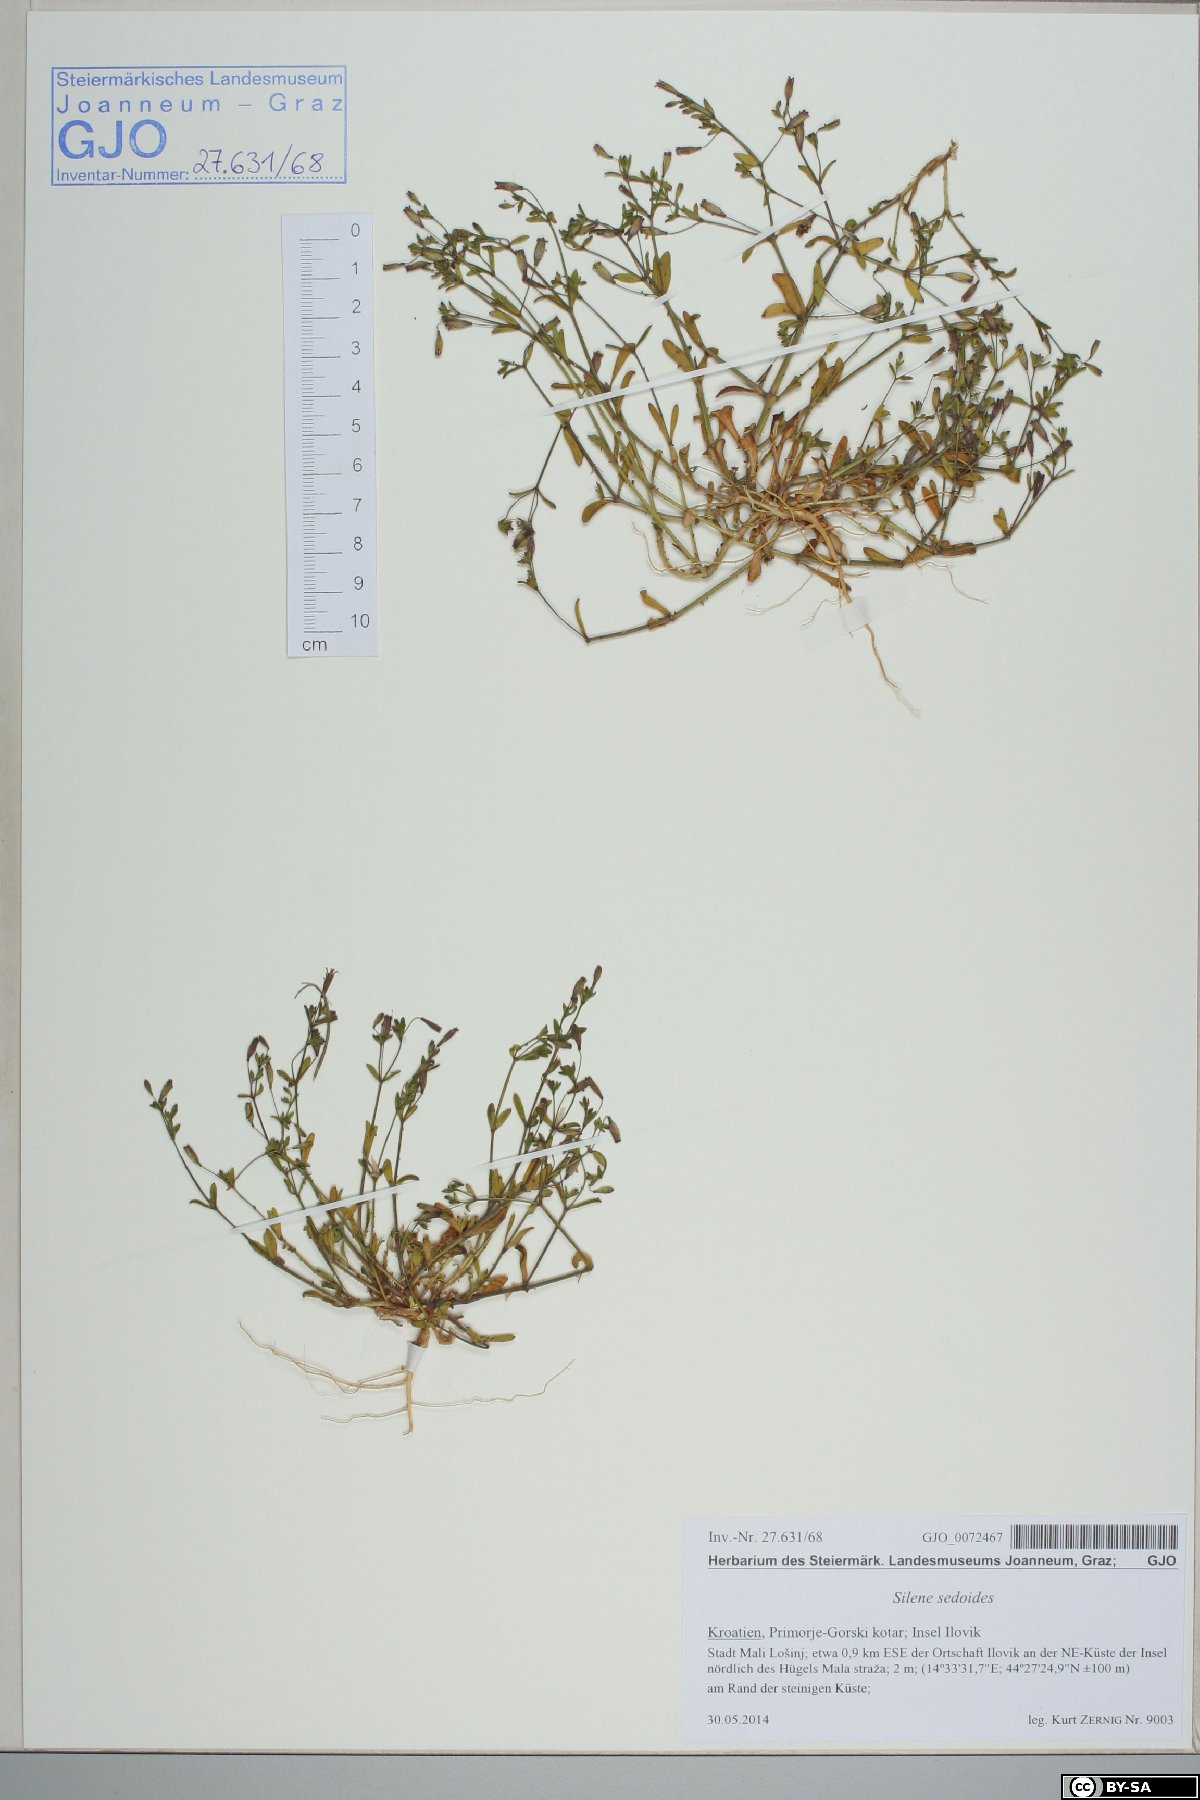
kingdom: Plantae
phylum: Tracheophyta
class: Magnoliopsida
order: Caryophyllales
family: Caryophyllaceae
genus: Silene
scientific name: Silene sedoides
